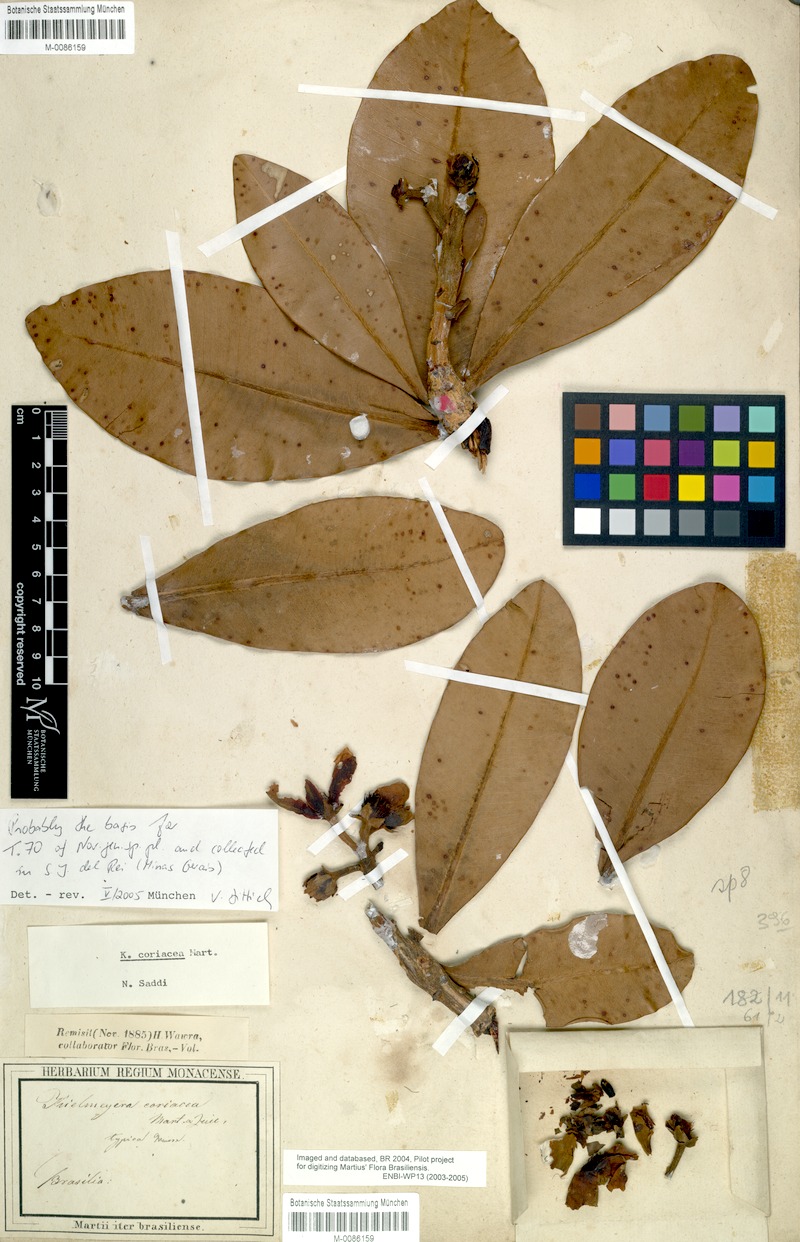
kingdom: Plantae
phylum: Tracheophyta
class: Magnoliopsida
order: Malpighiales
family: Calophyllaceae
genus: Kielmeyera
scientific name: Kielmeyera coriacea
